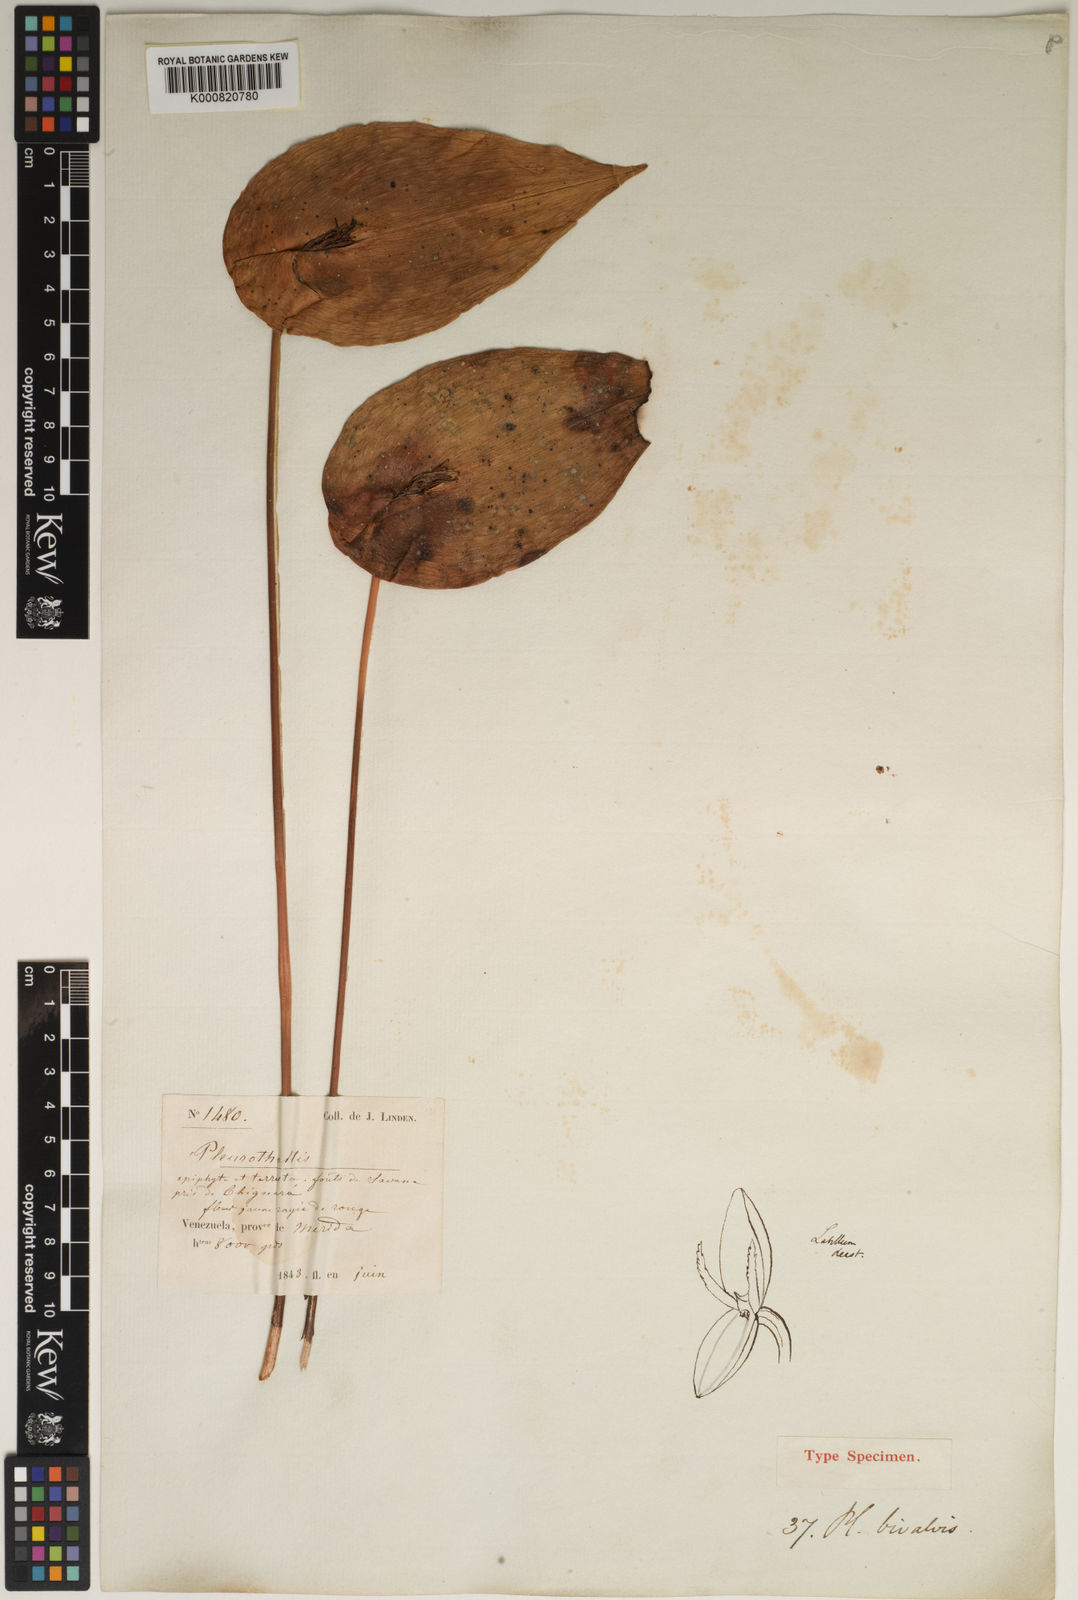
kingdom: Plantae
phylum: Tracheophyta
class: Liliopsida
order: Asparagales
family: Orchidaceae
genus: Pleurothallis
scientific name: Pleurothallis bivalvis
